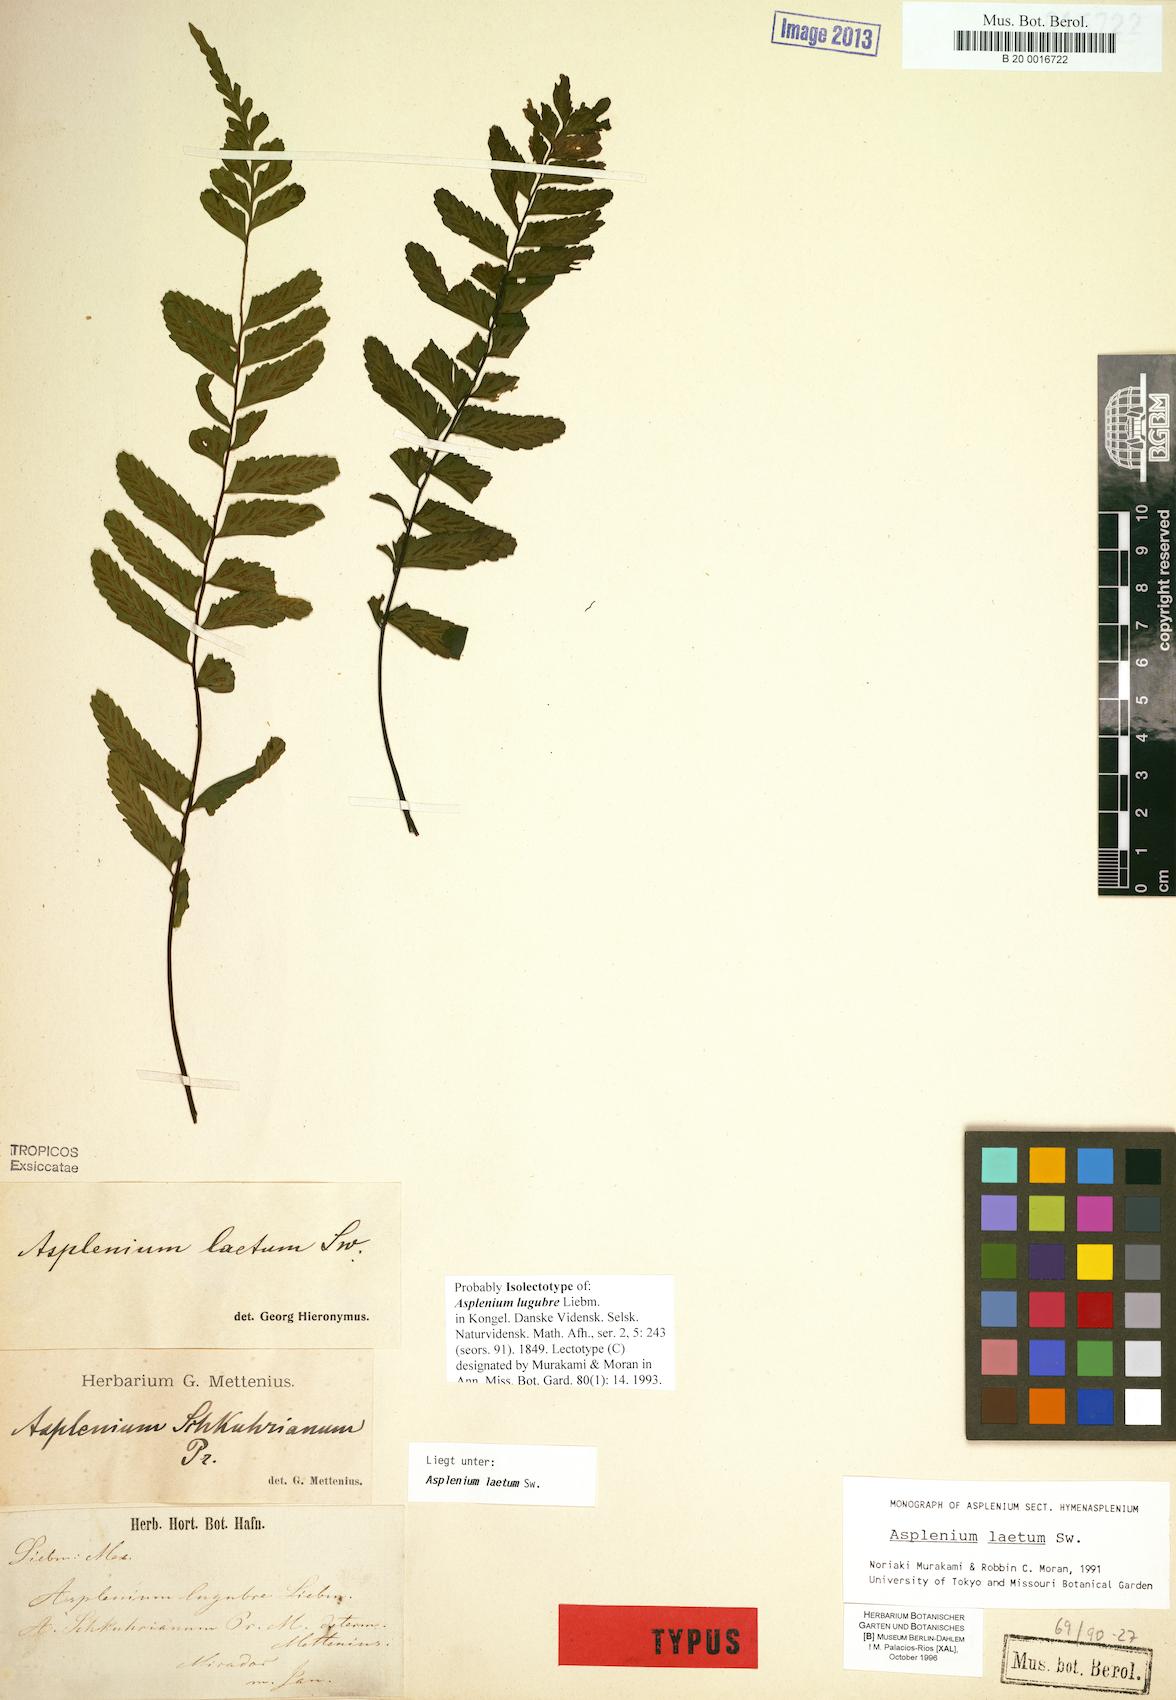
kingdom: Plantae
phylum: Tracheophyta
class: Polypodiopsida
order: Polypodiales
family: Aspleniaceae
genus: Hymenasplenium
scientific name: Hymenasplenium laetum
